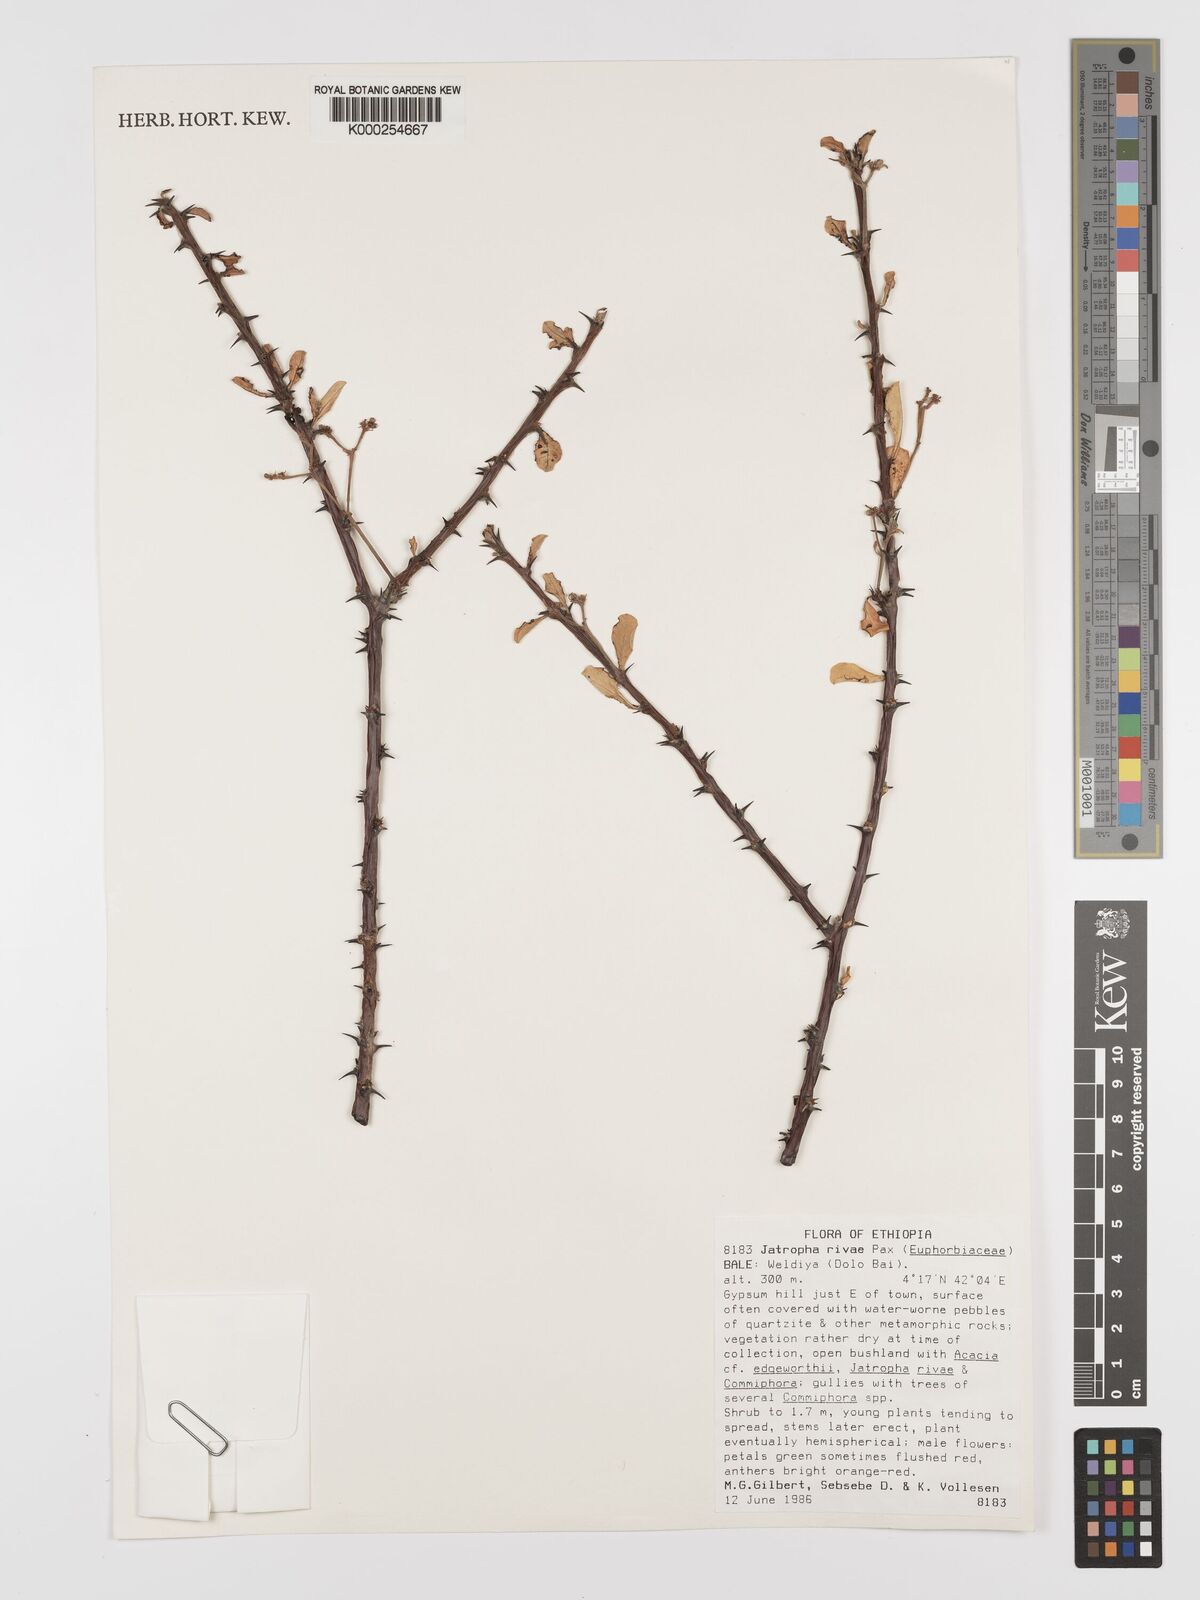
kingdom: Plantae
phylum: Tracheophyta
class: Magnoliopsida
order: Malpighiales
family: Euphorbiaceae
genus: Jatropha
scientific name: Jatropha rivae
